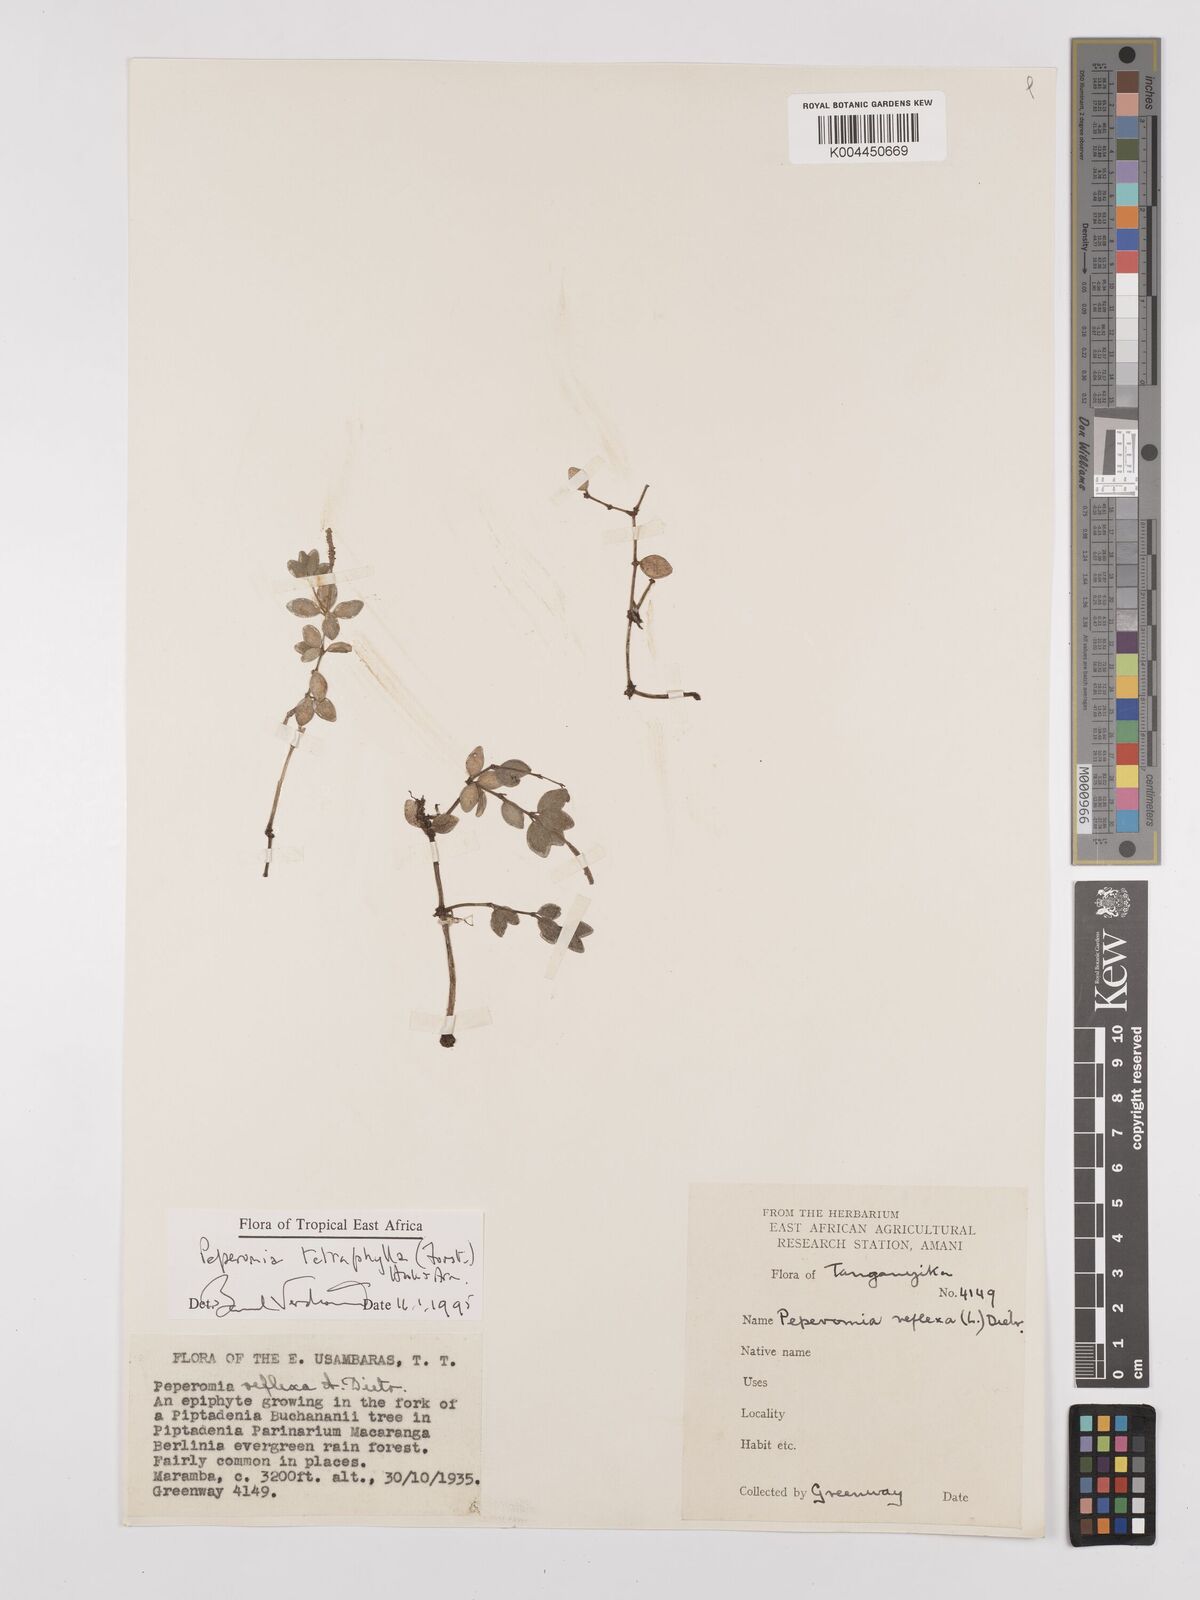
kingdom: Plantae
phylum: Tracheophyta
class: Magnoliopsida
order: Piperales
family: Piperaceae
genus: Peperomia
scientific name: Peperomia tetraphylla
